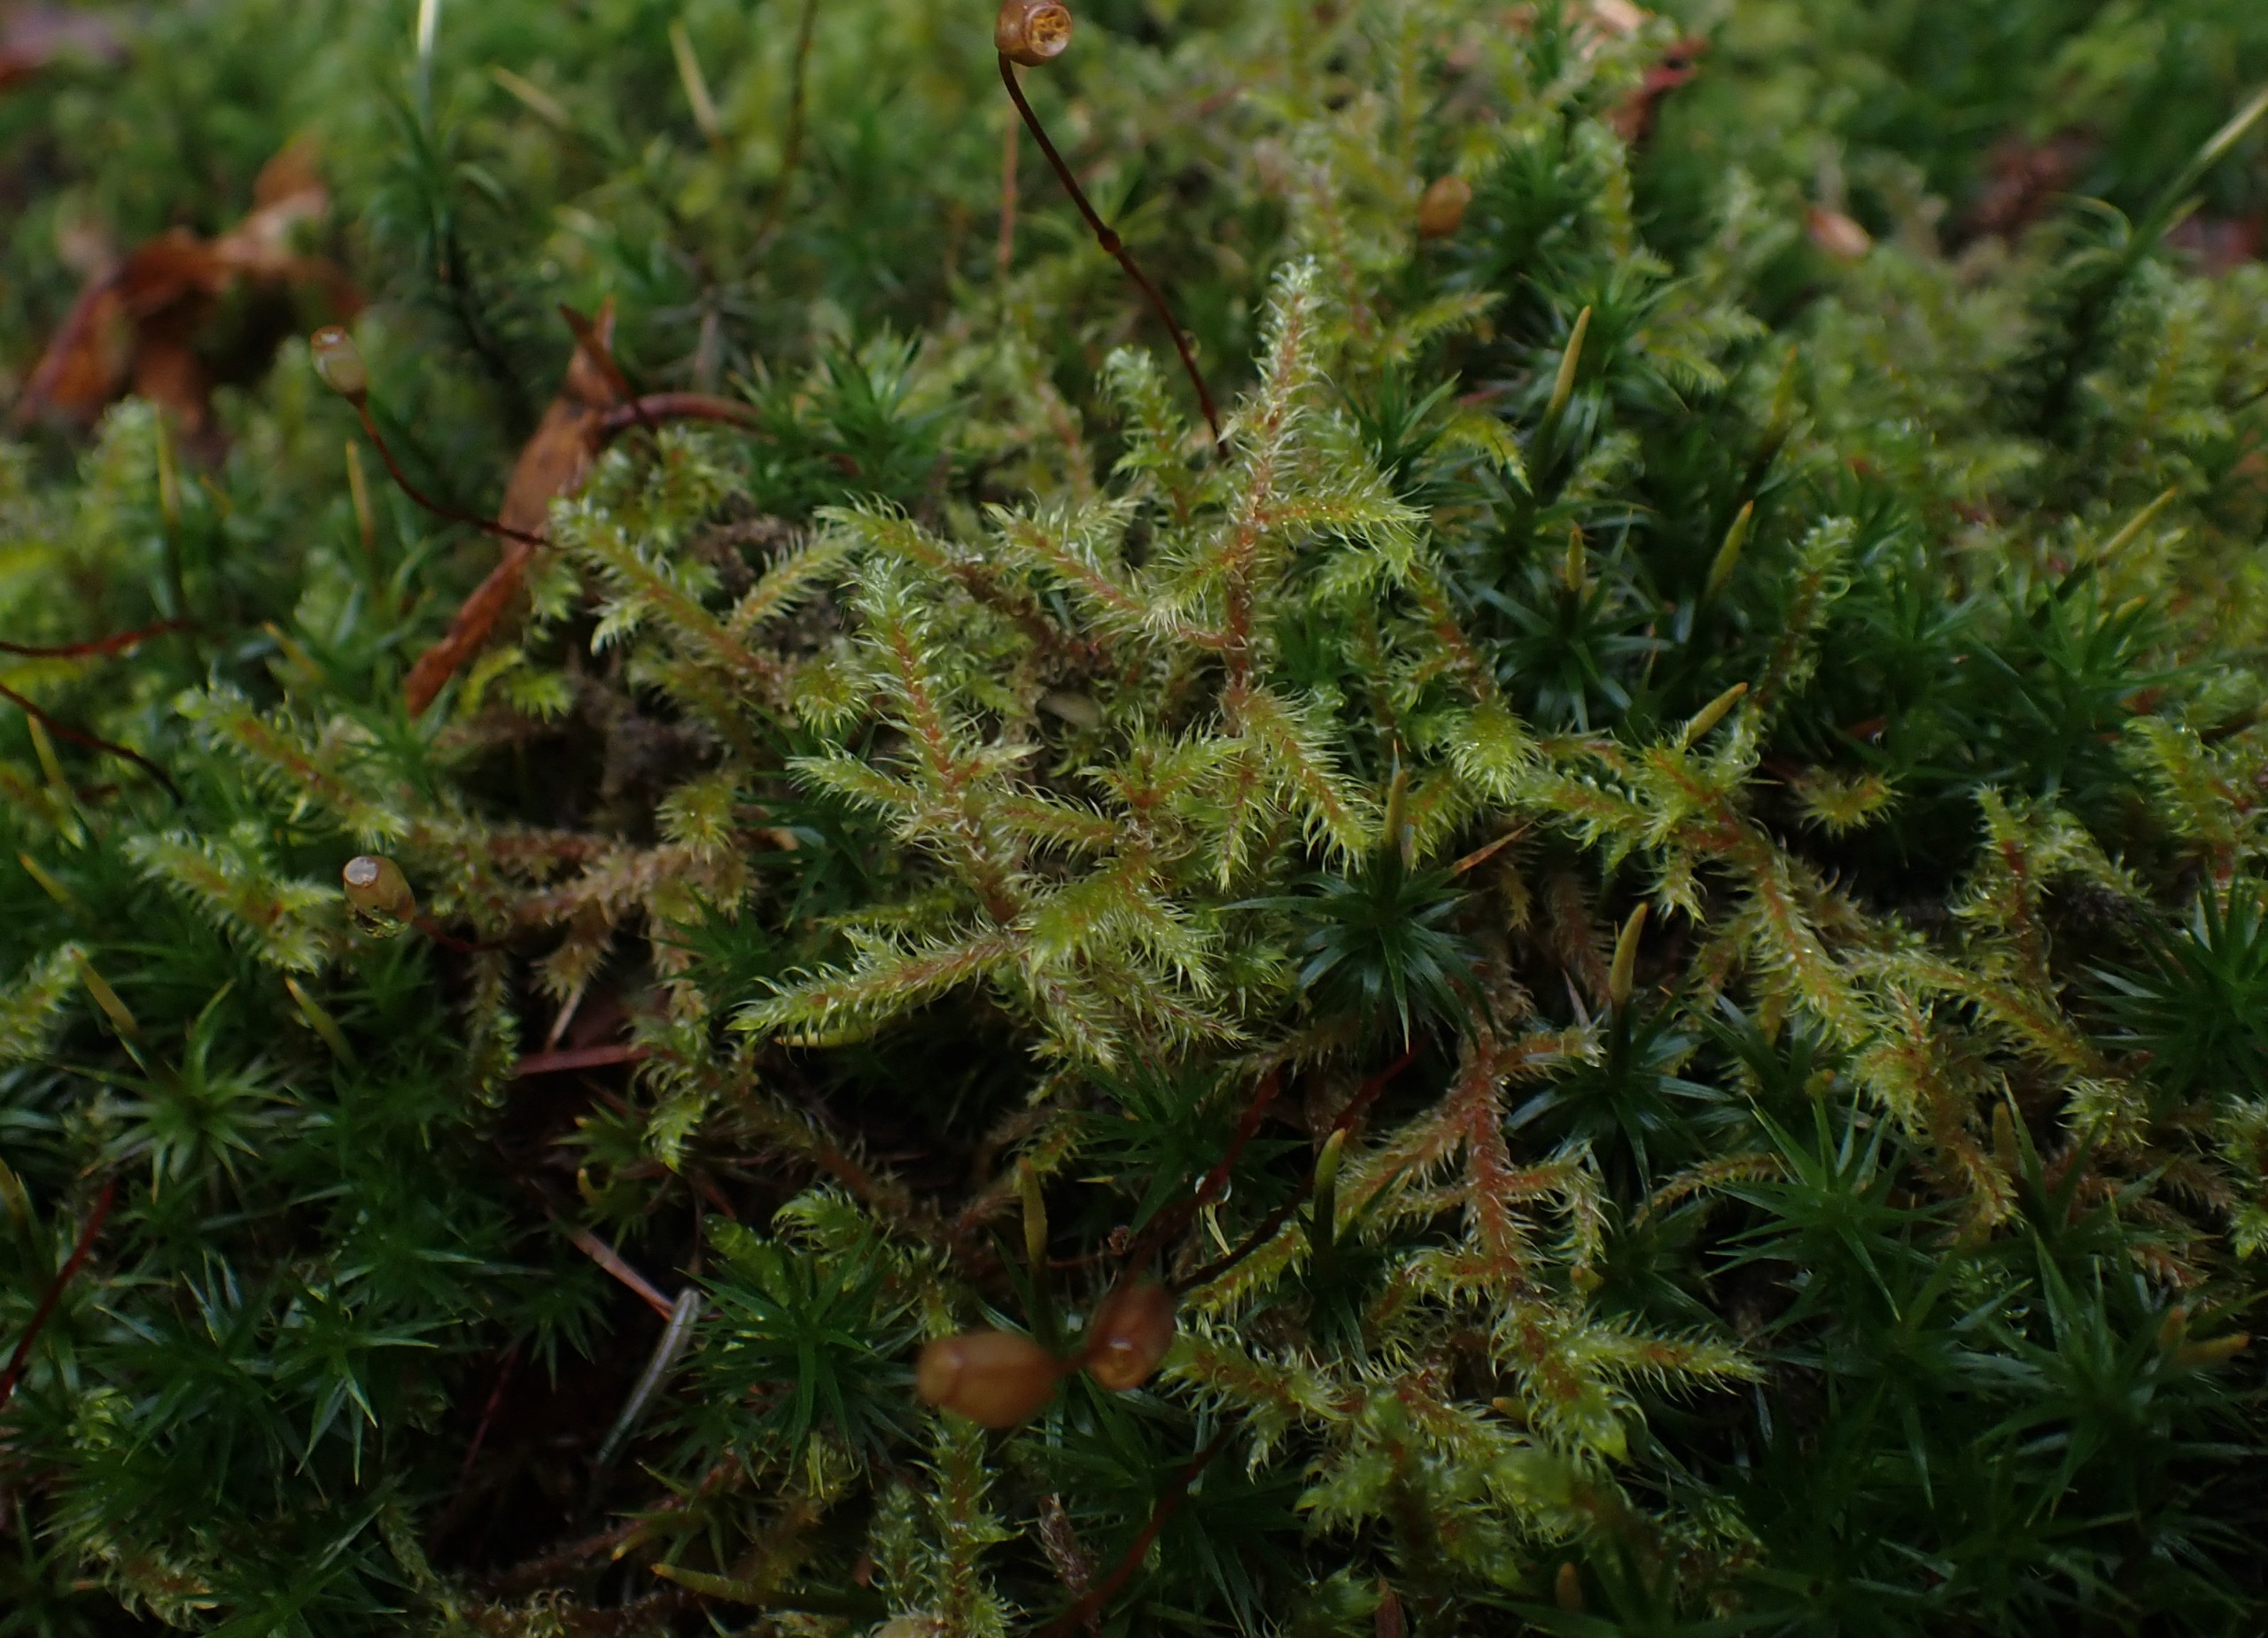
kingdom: Plantae
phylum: Bryophyta
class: Bryopsida
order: Hypnales
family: Hylocomiaceae
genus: Rhytidiadelphus
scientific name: Rhytidiadelphus loreus
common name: Ulvefod-kransemos
